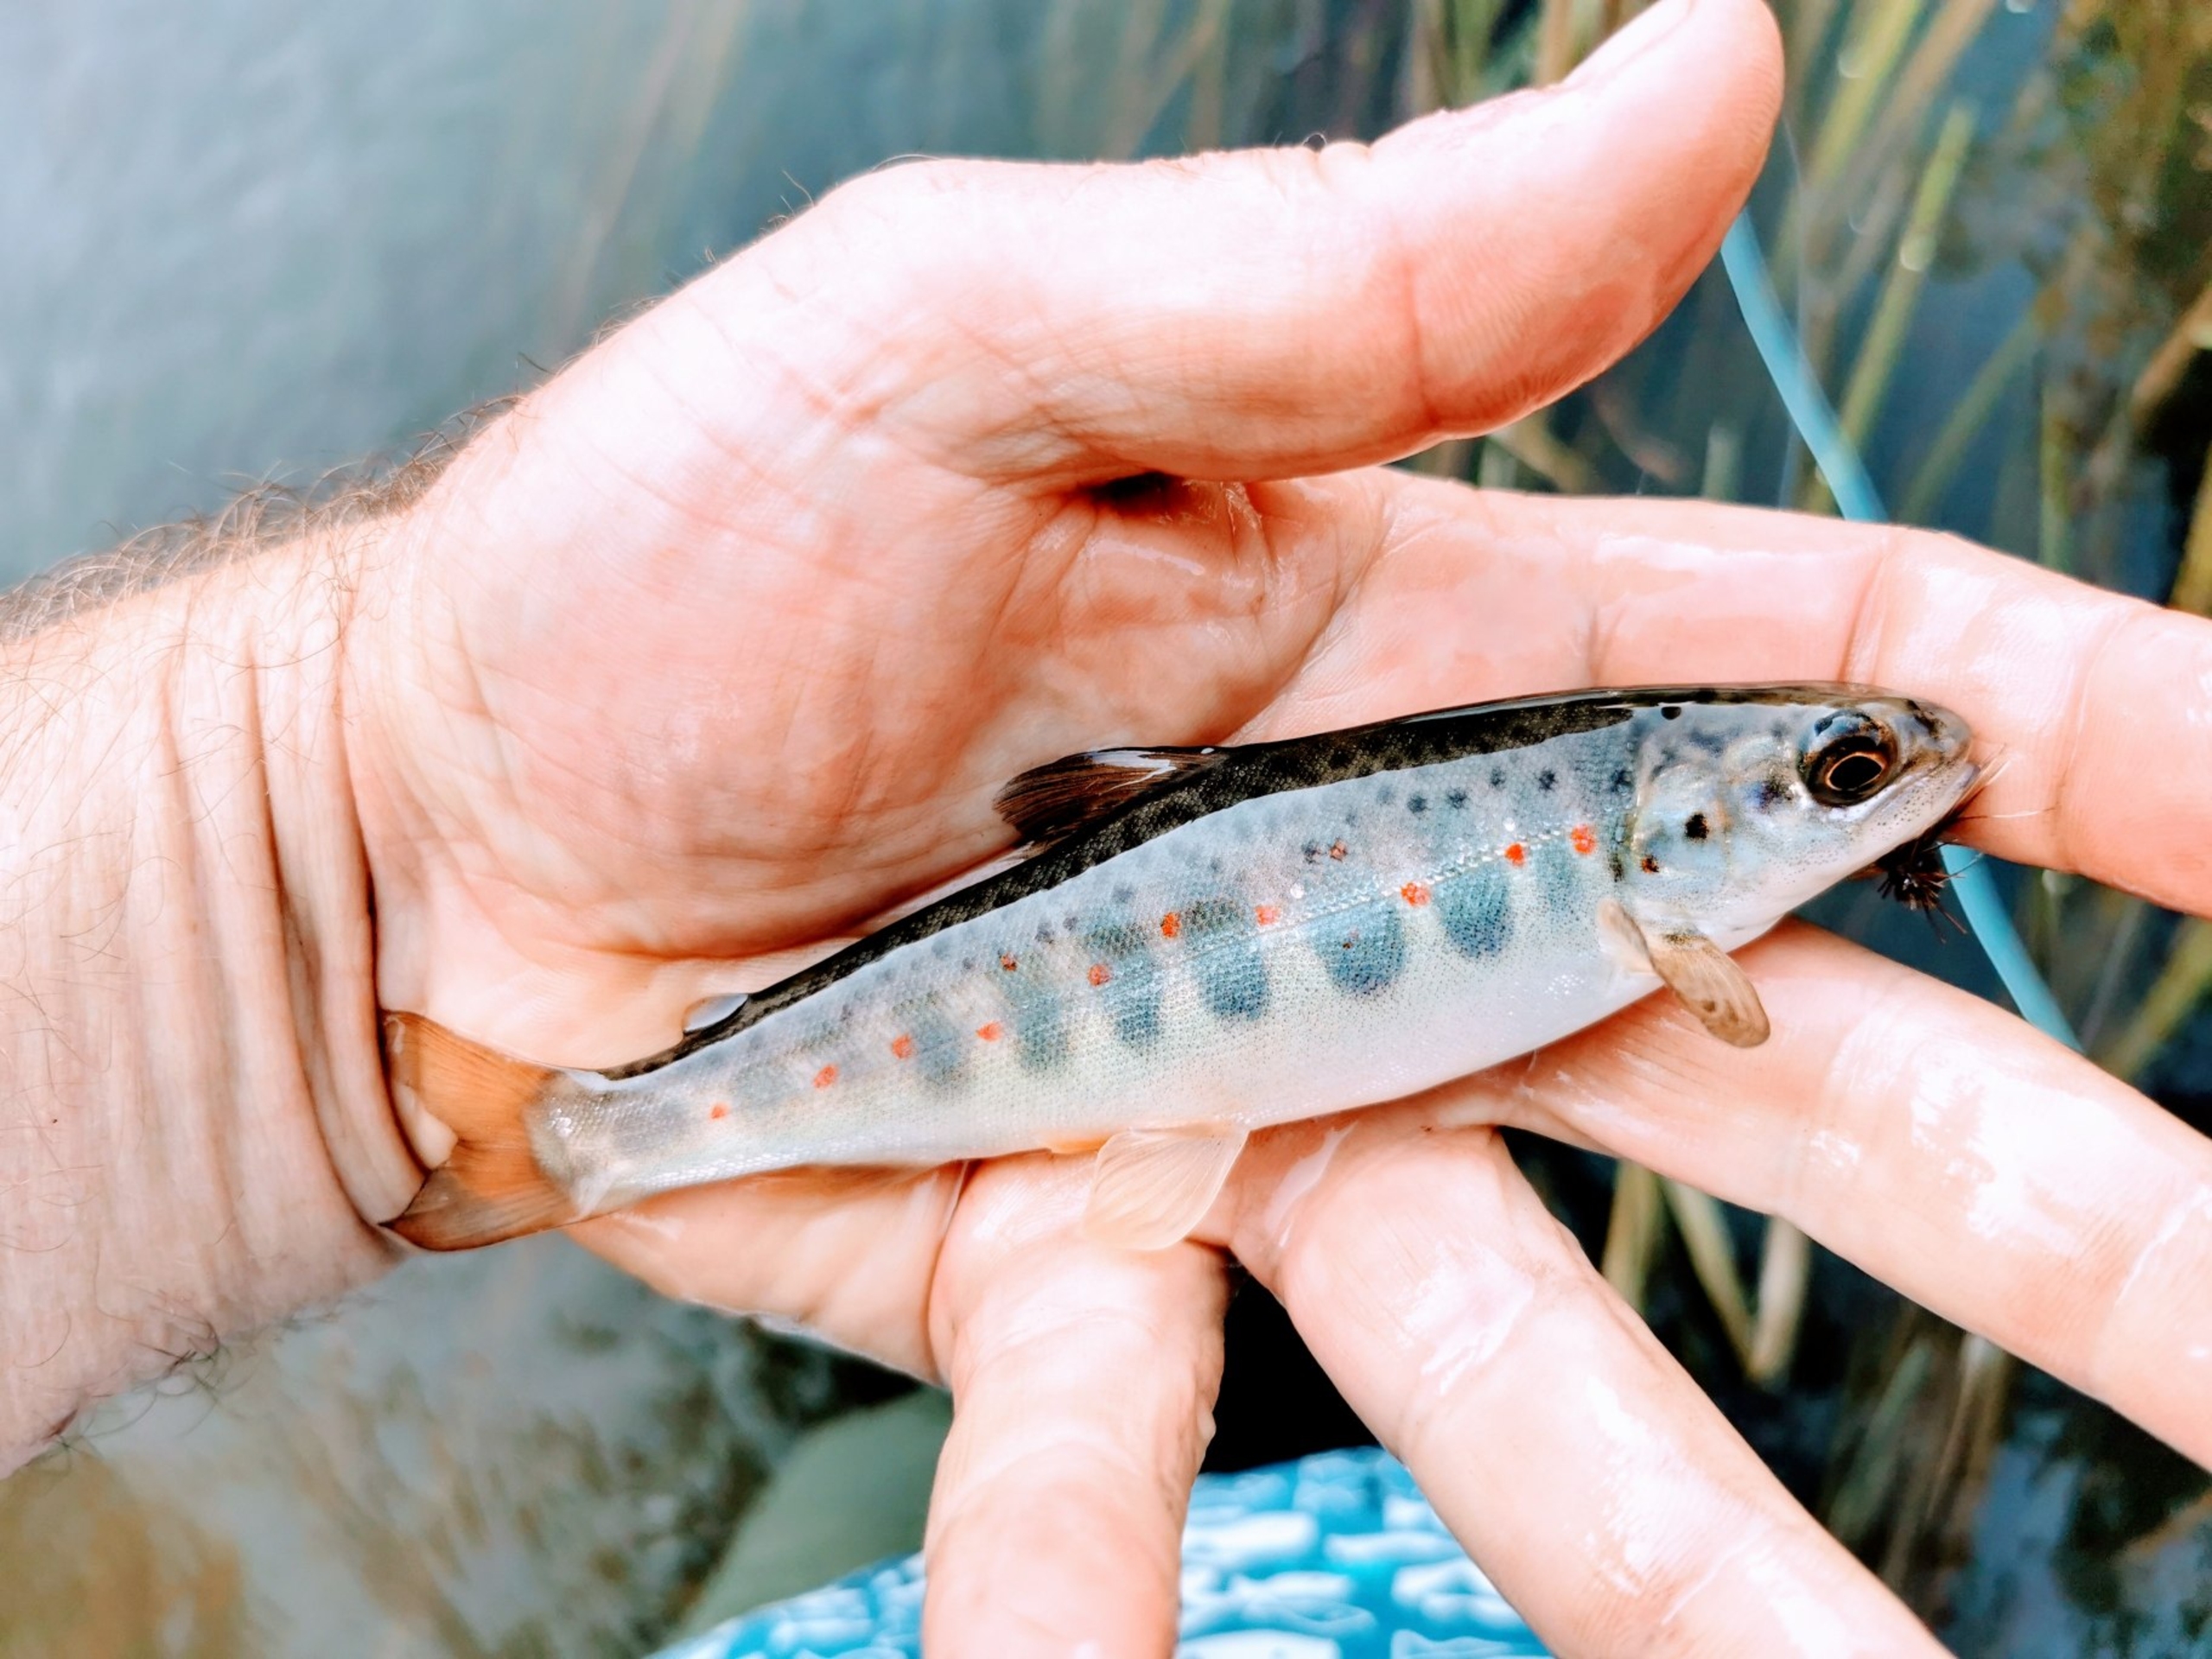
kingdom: Animalia
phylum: Chordata
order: Salmoniformes
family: Salmonidae
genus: Salmo
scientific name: Salmo salar
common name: Laks
